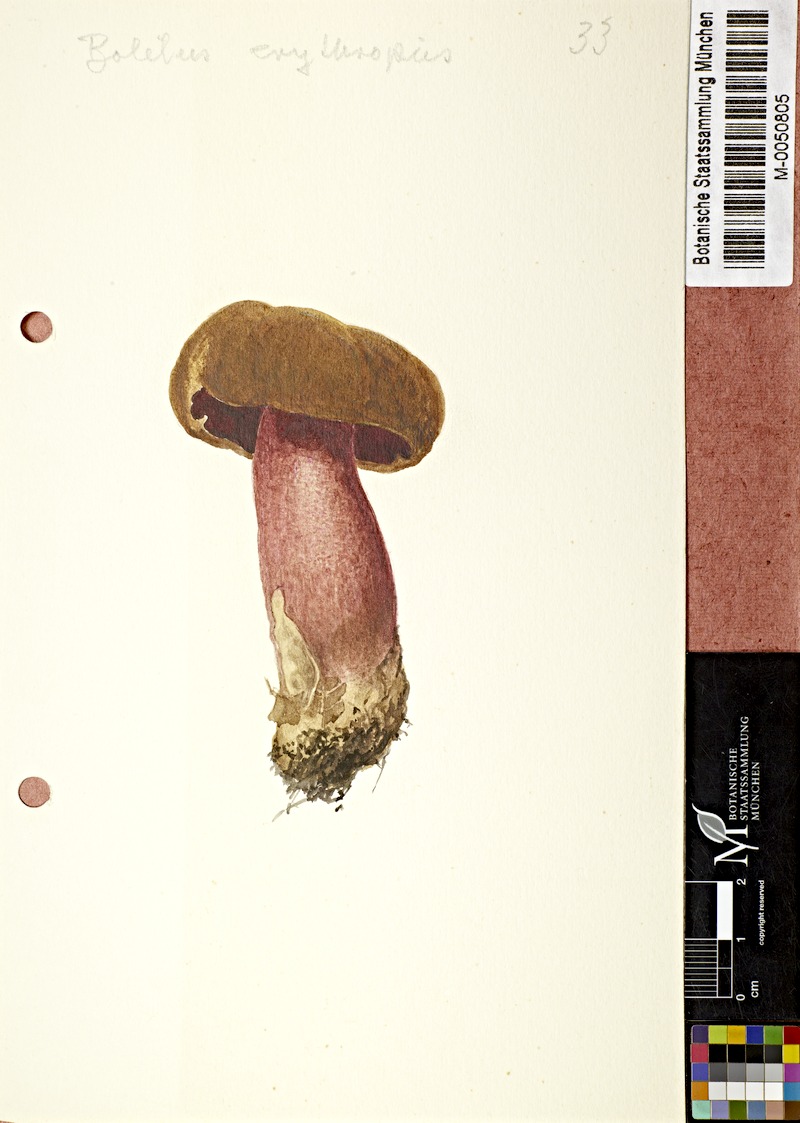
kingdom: Fungi
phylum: Basidiomycota
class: Agaricomycetes
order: Boletales
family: Boletaceae
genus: Neoboletus
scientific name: Neoboletus erythropus
